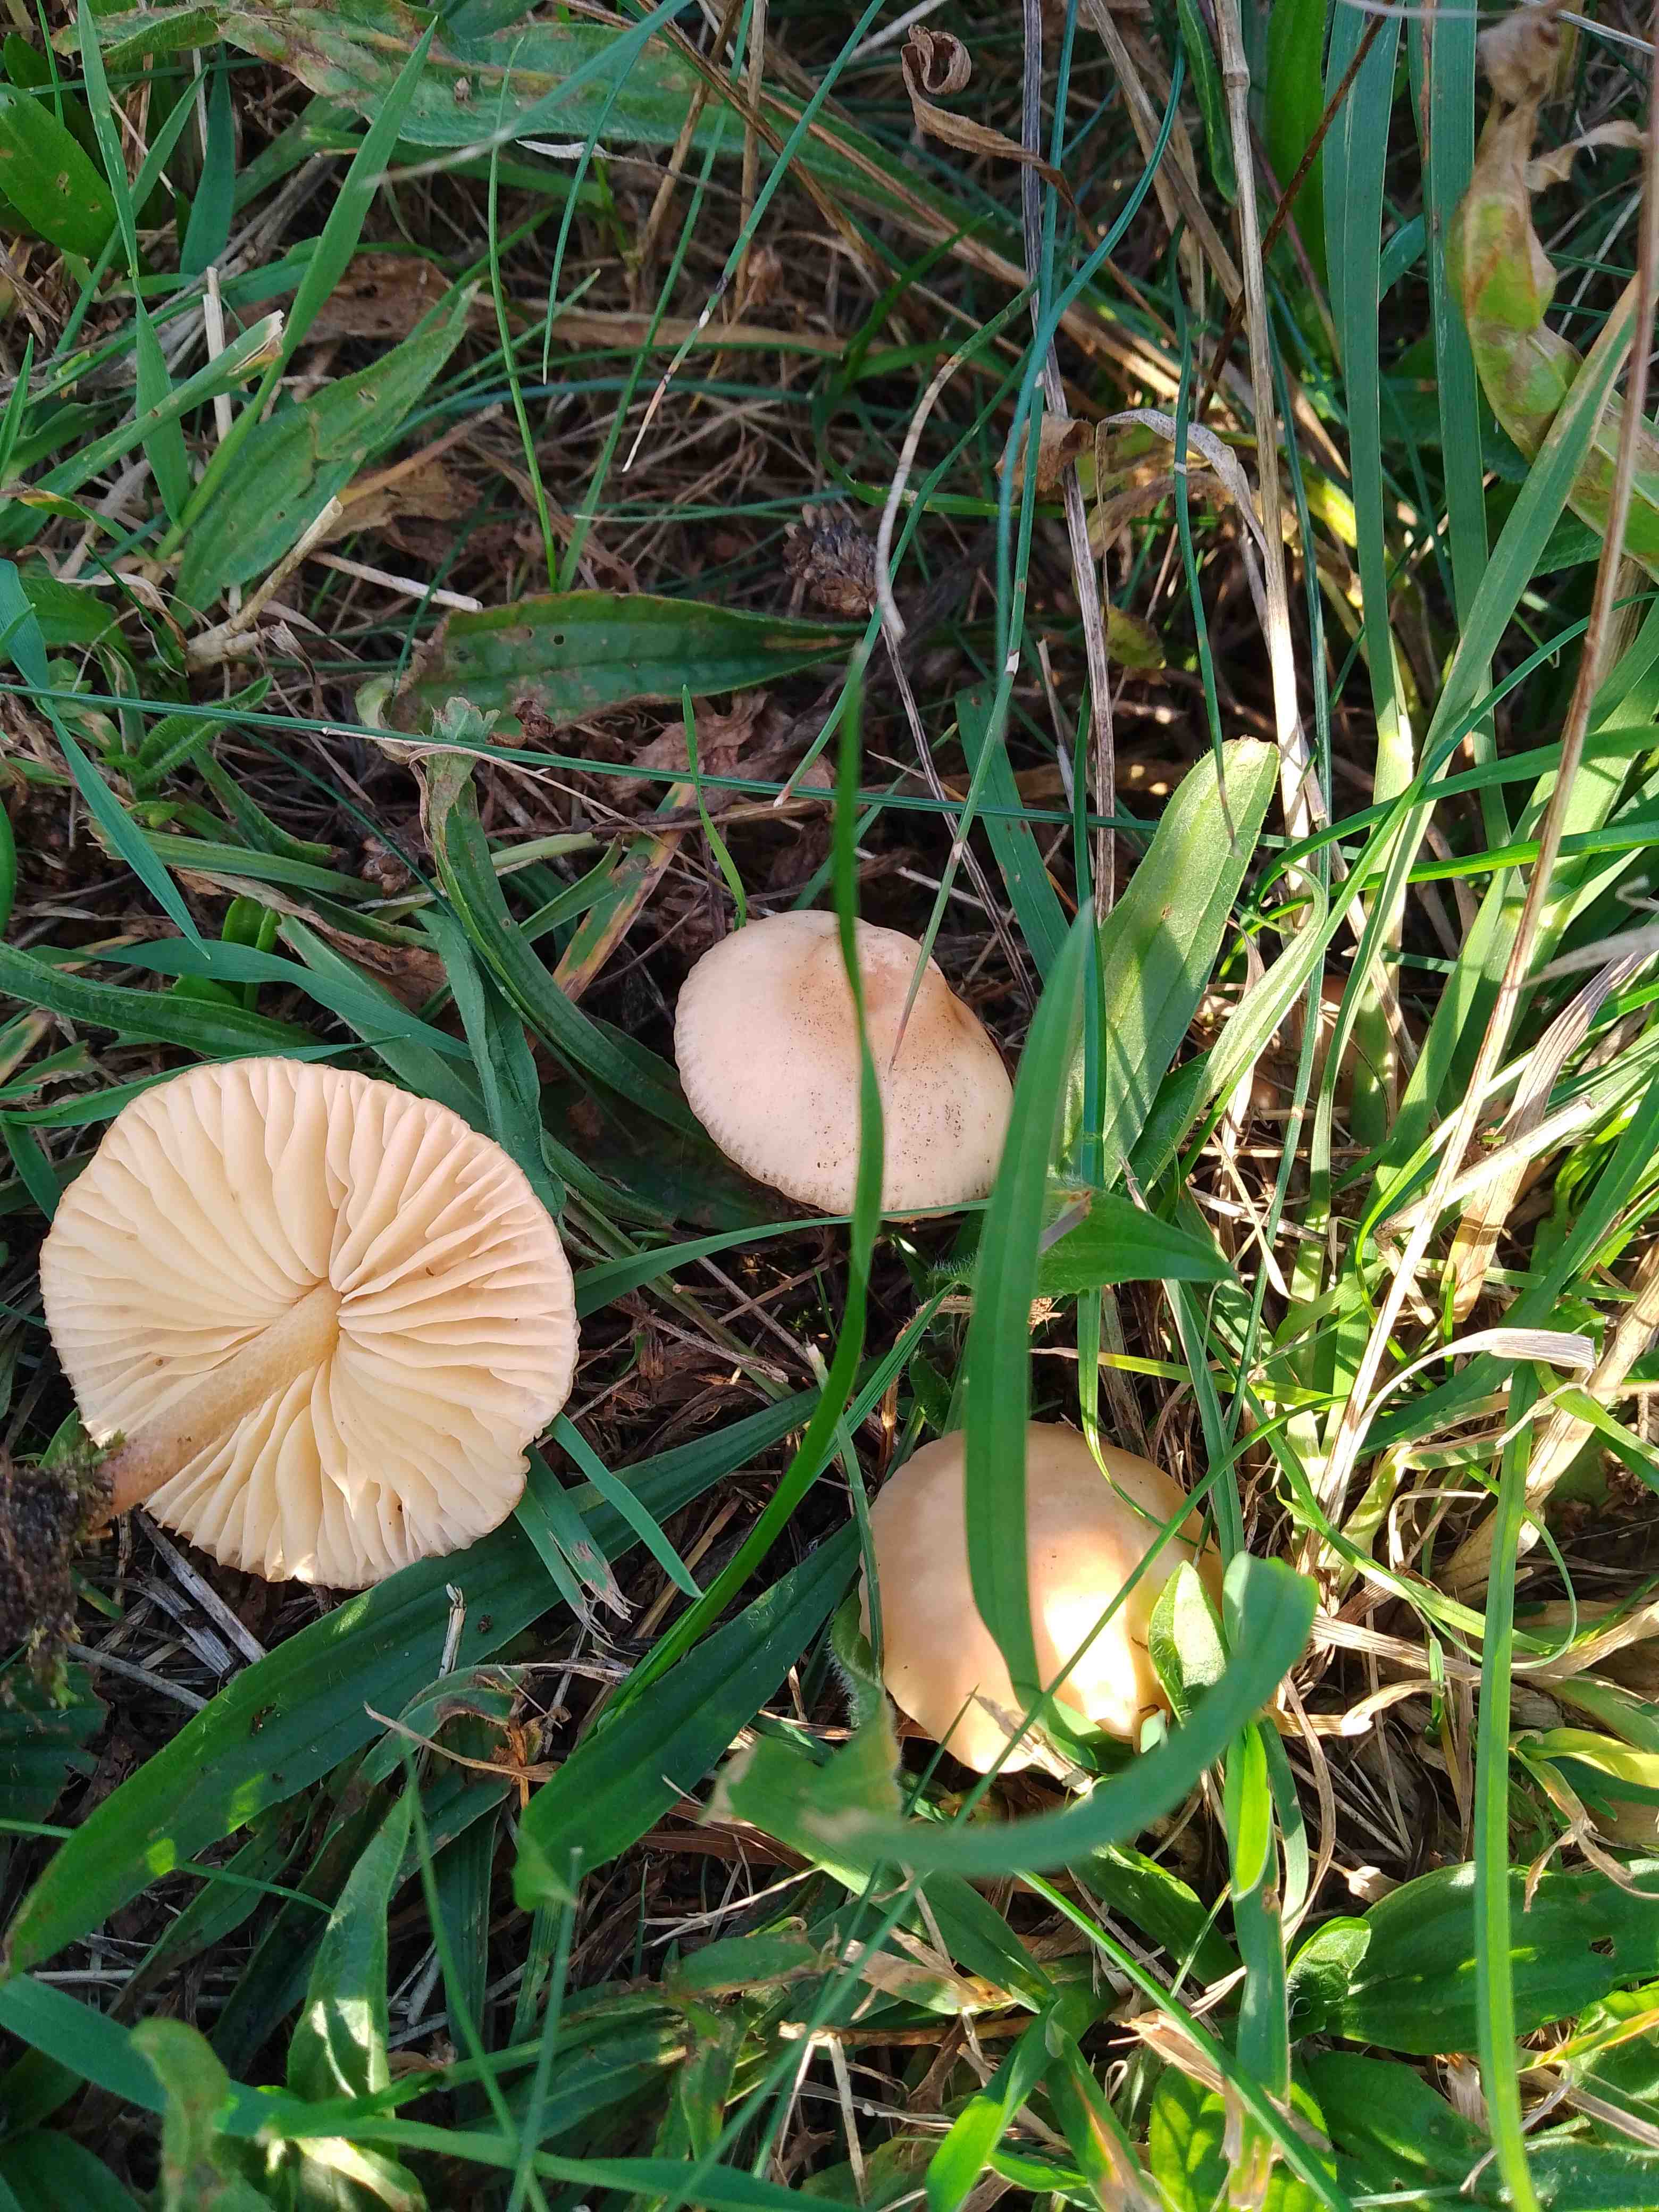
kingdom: Fungi
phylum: Basidiomycota
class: Agaricomycetes
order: Agaricales
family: Marasmiaceae
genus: Marasmius
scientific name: Marasmius oreades
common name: elledans-bruskhat
